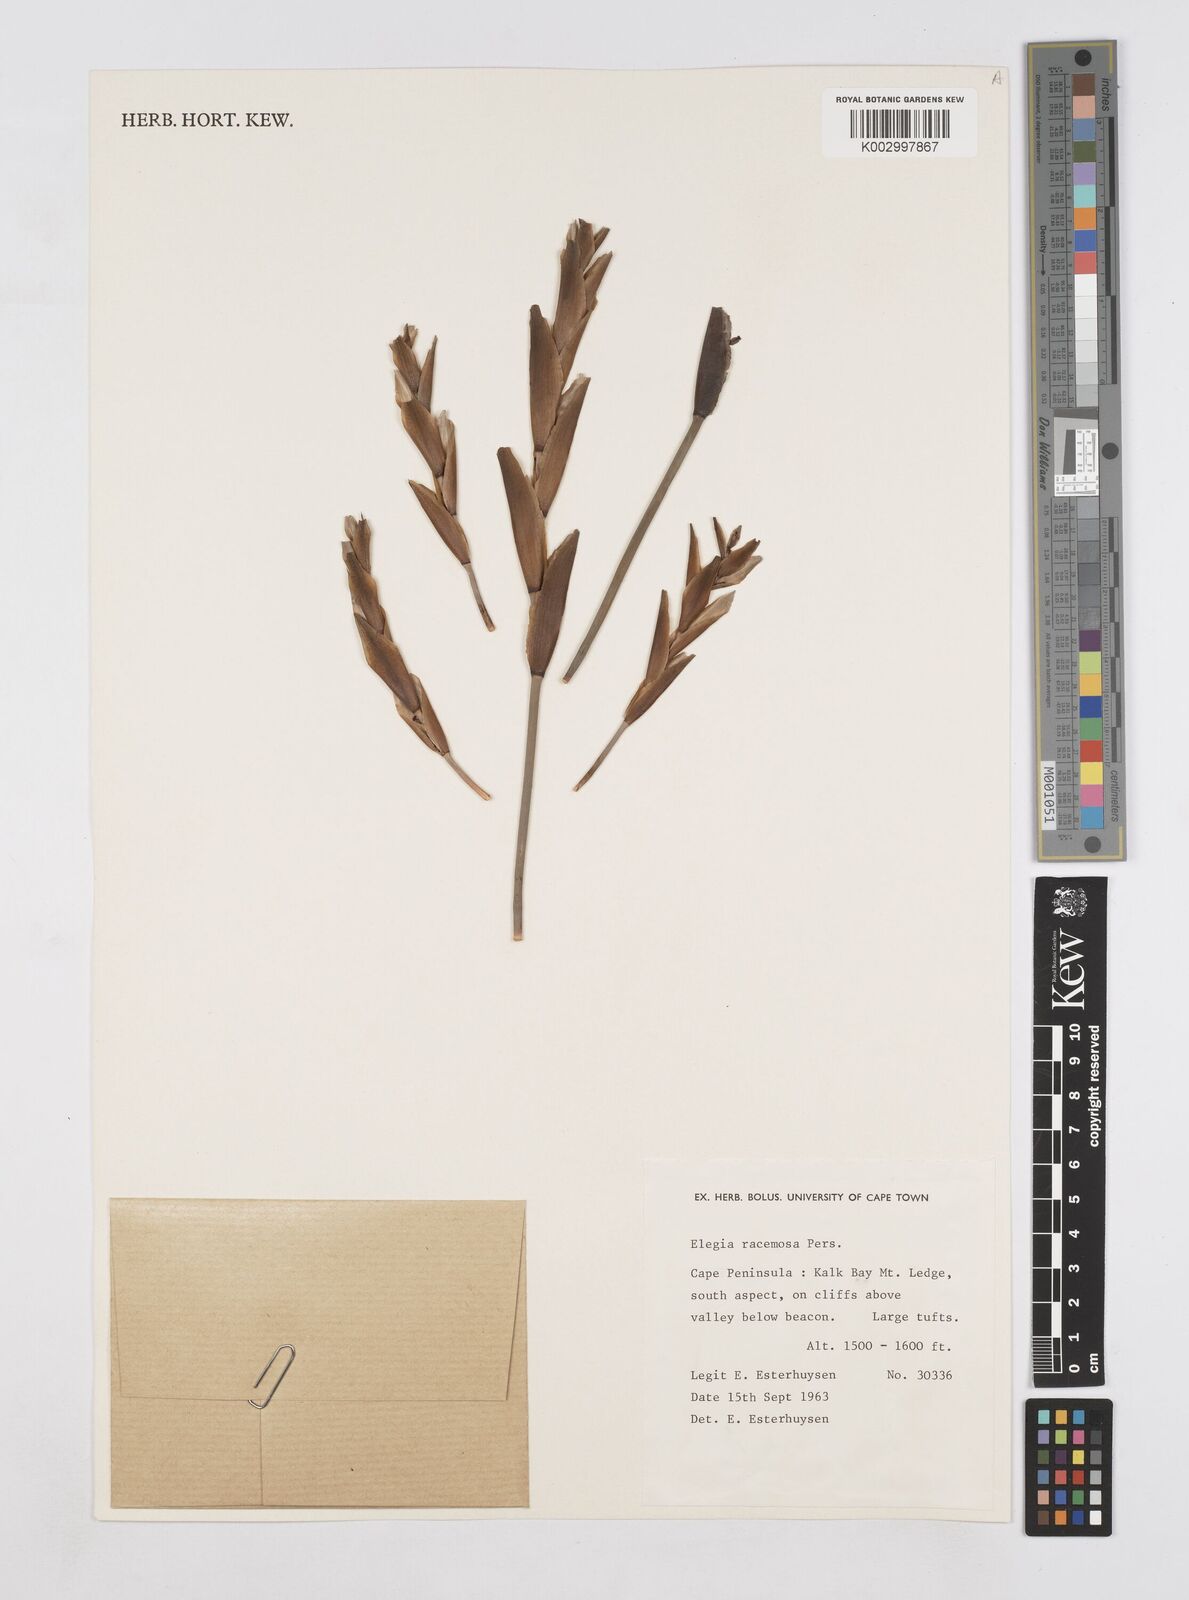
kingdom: Plantae
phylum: Tracheophyta
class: Liliopsida
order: Poales
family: Restionaceae
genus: Elegia
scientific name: Elegia racemosa
